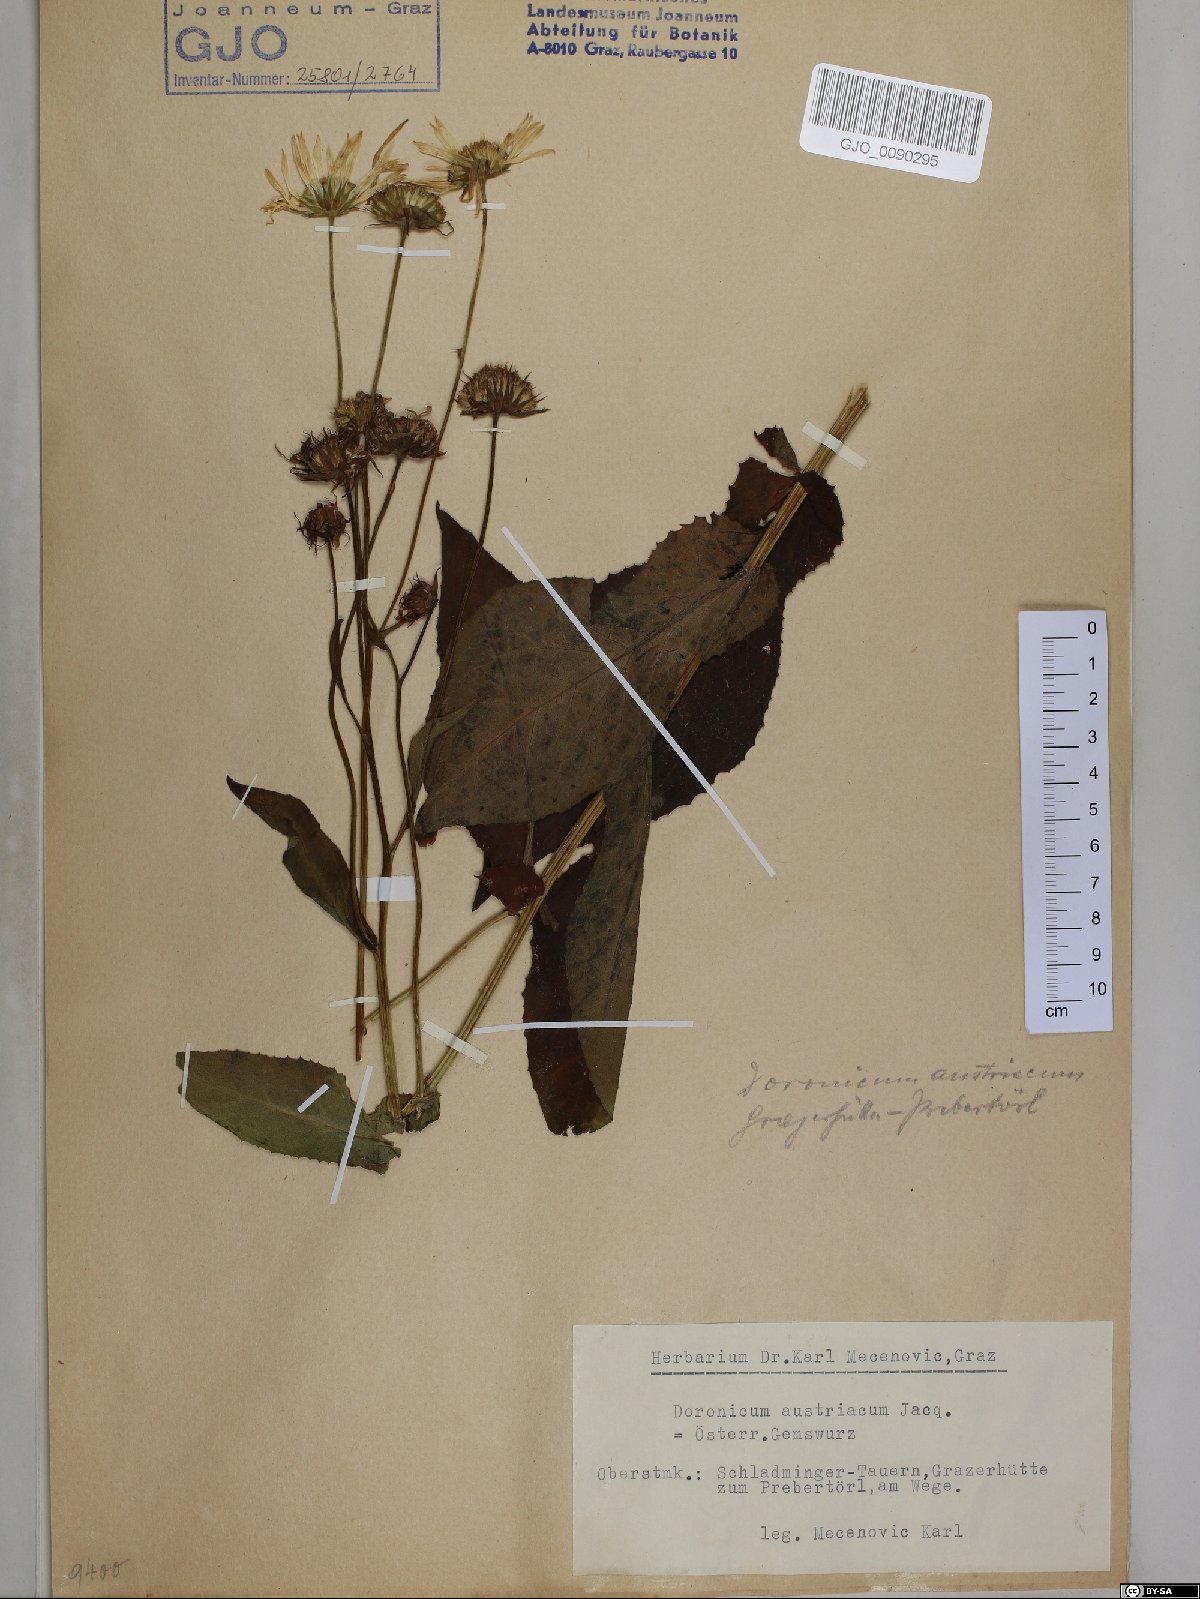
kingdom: Plantae
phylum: Tracheophyta
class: Magnoliopsida
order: Asterales
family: Asteraceae
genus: Doronicum
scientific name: Doronicum austriacum
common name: Austrian leopard's-bane
